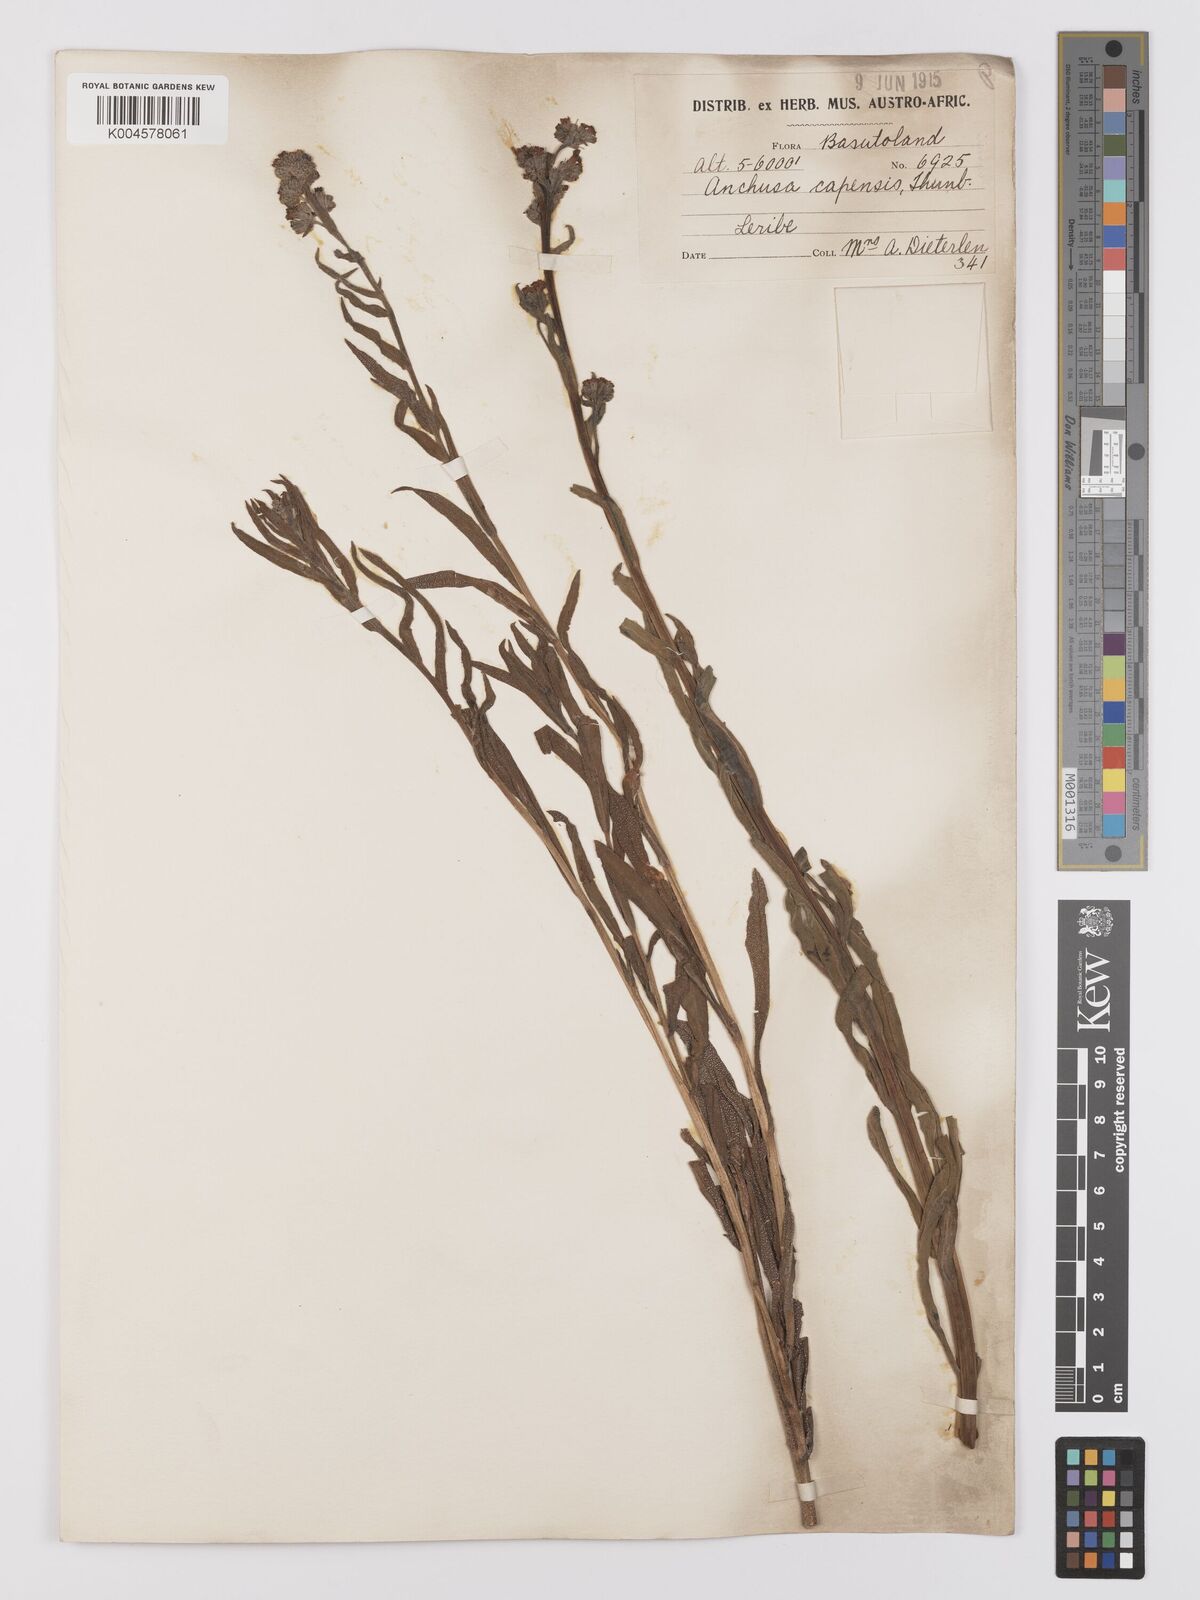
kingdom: Plantae
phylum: Tracheophyta
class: Magnoliopsida
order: Boraginales
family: Boraginaceae
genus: Anchusa
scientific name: Anchusa capensis
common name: Cape bugloss
